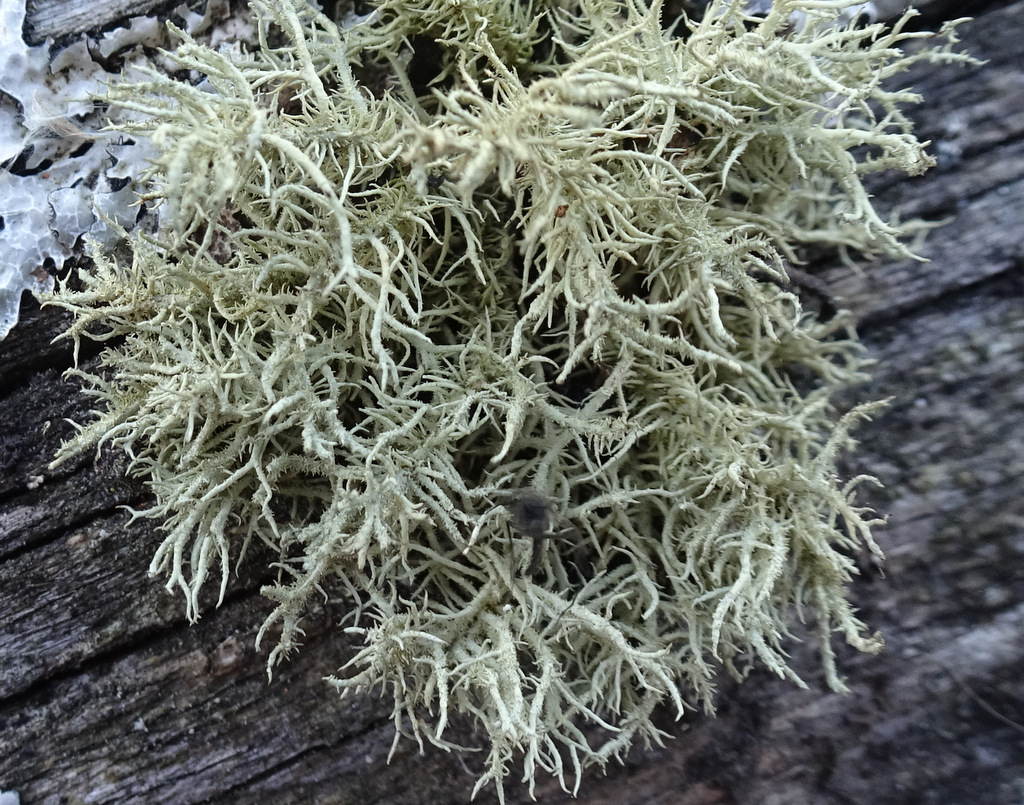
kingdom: Fungi
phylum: Ascomycota
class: Lecanoromycetes
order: Lecanorales
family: Parmeliaceae
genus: Usnea
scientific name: Usnea hirta
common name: liden skæglav
